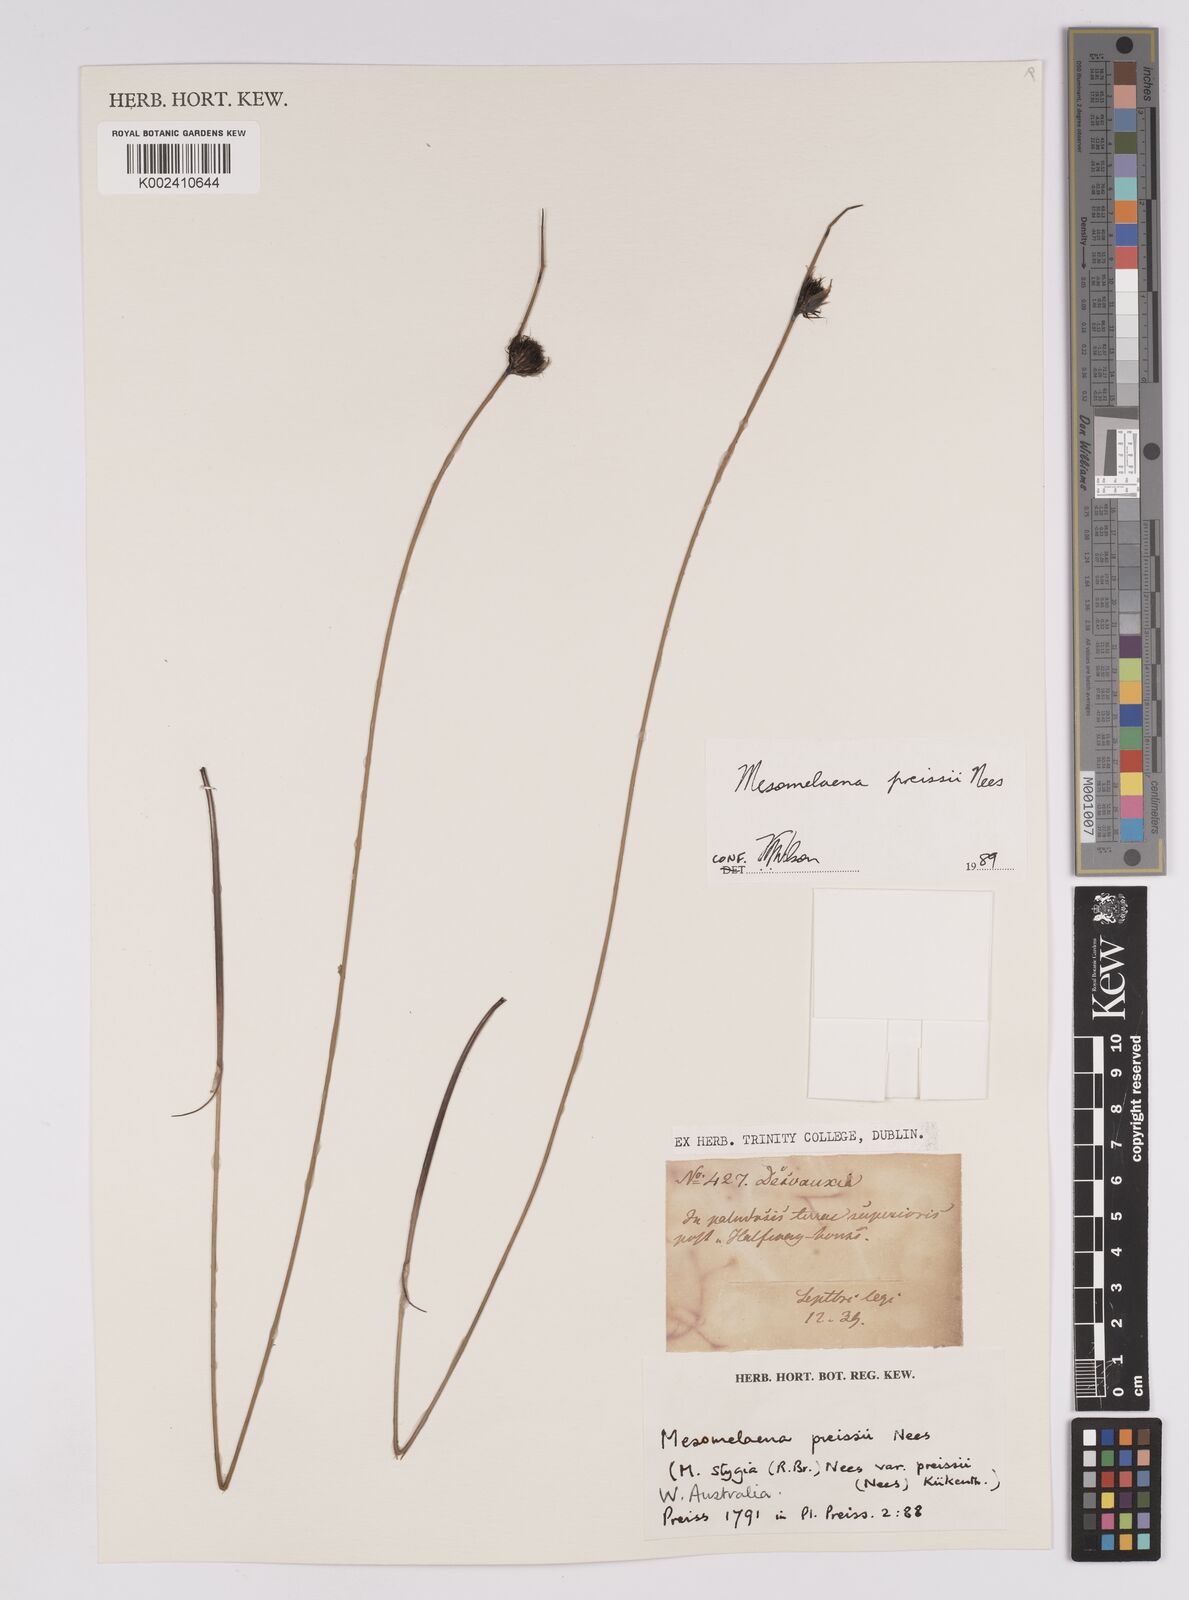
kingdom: Plantae
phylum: Tracheophyta
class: Liliopsida
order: Poales
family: Cyperaceae
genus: Mesomelaena
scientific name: Mesomelaena preissii
